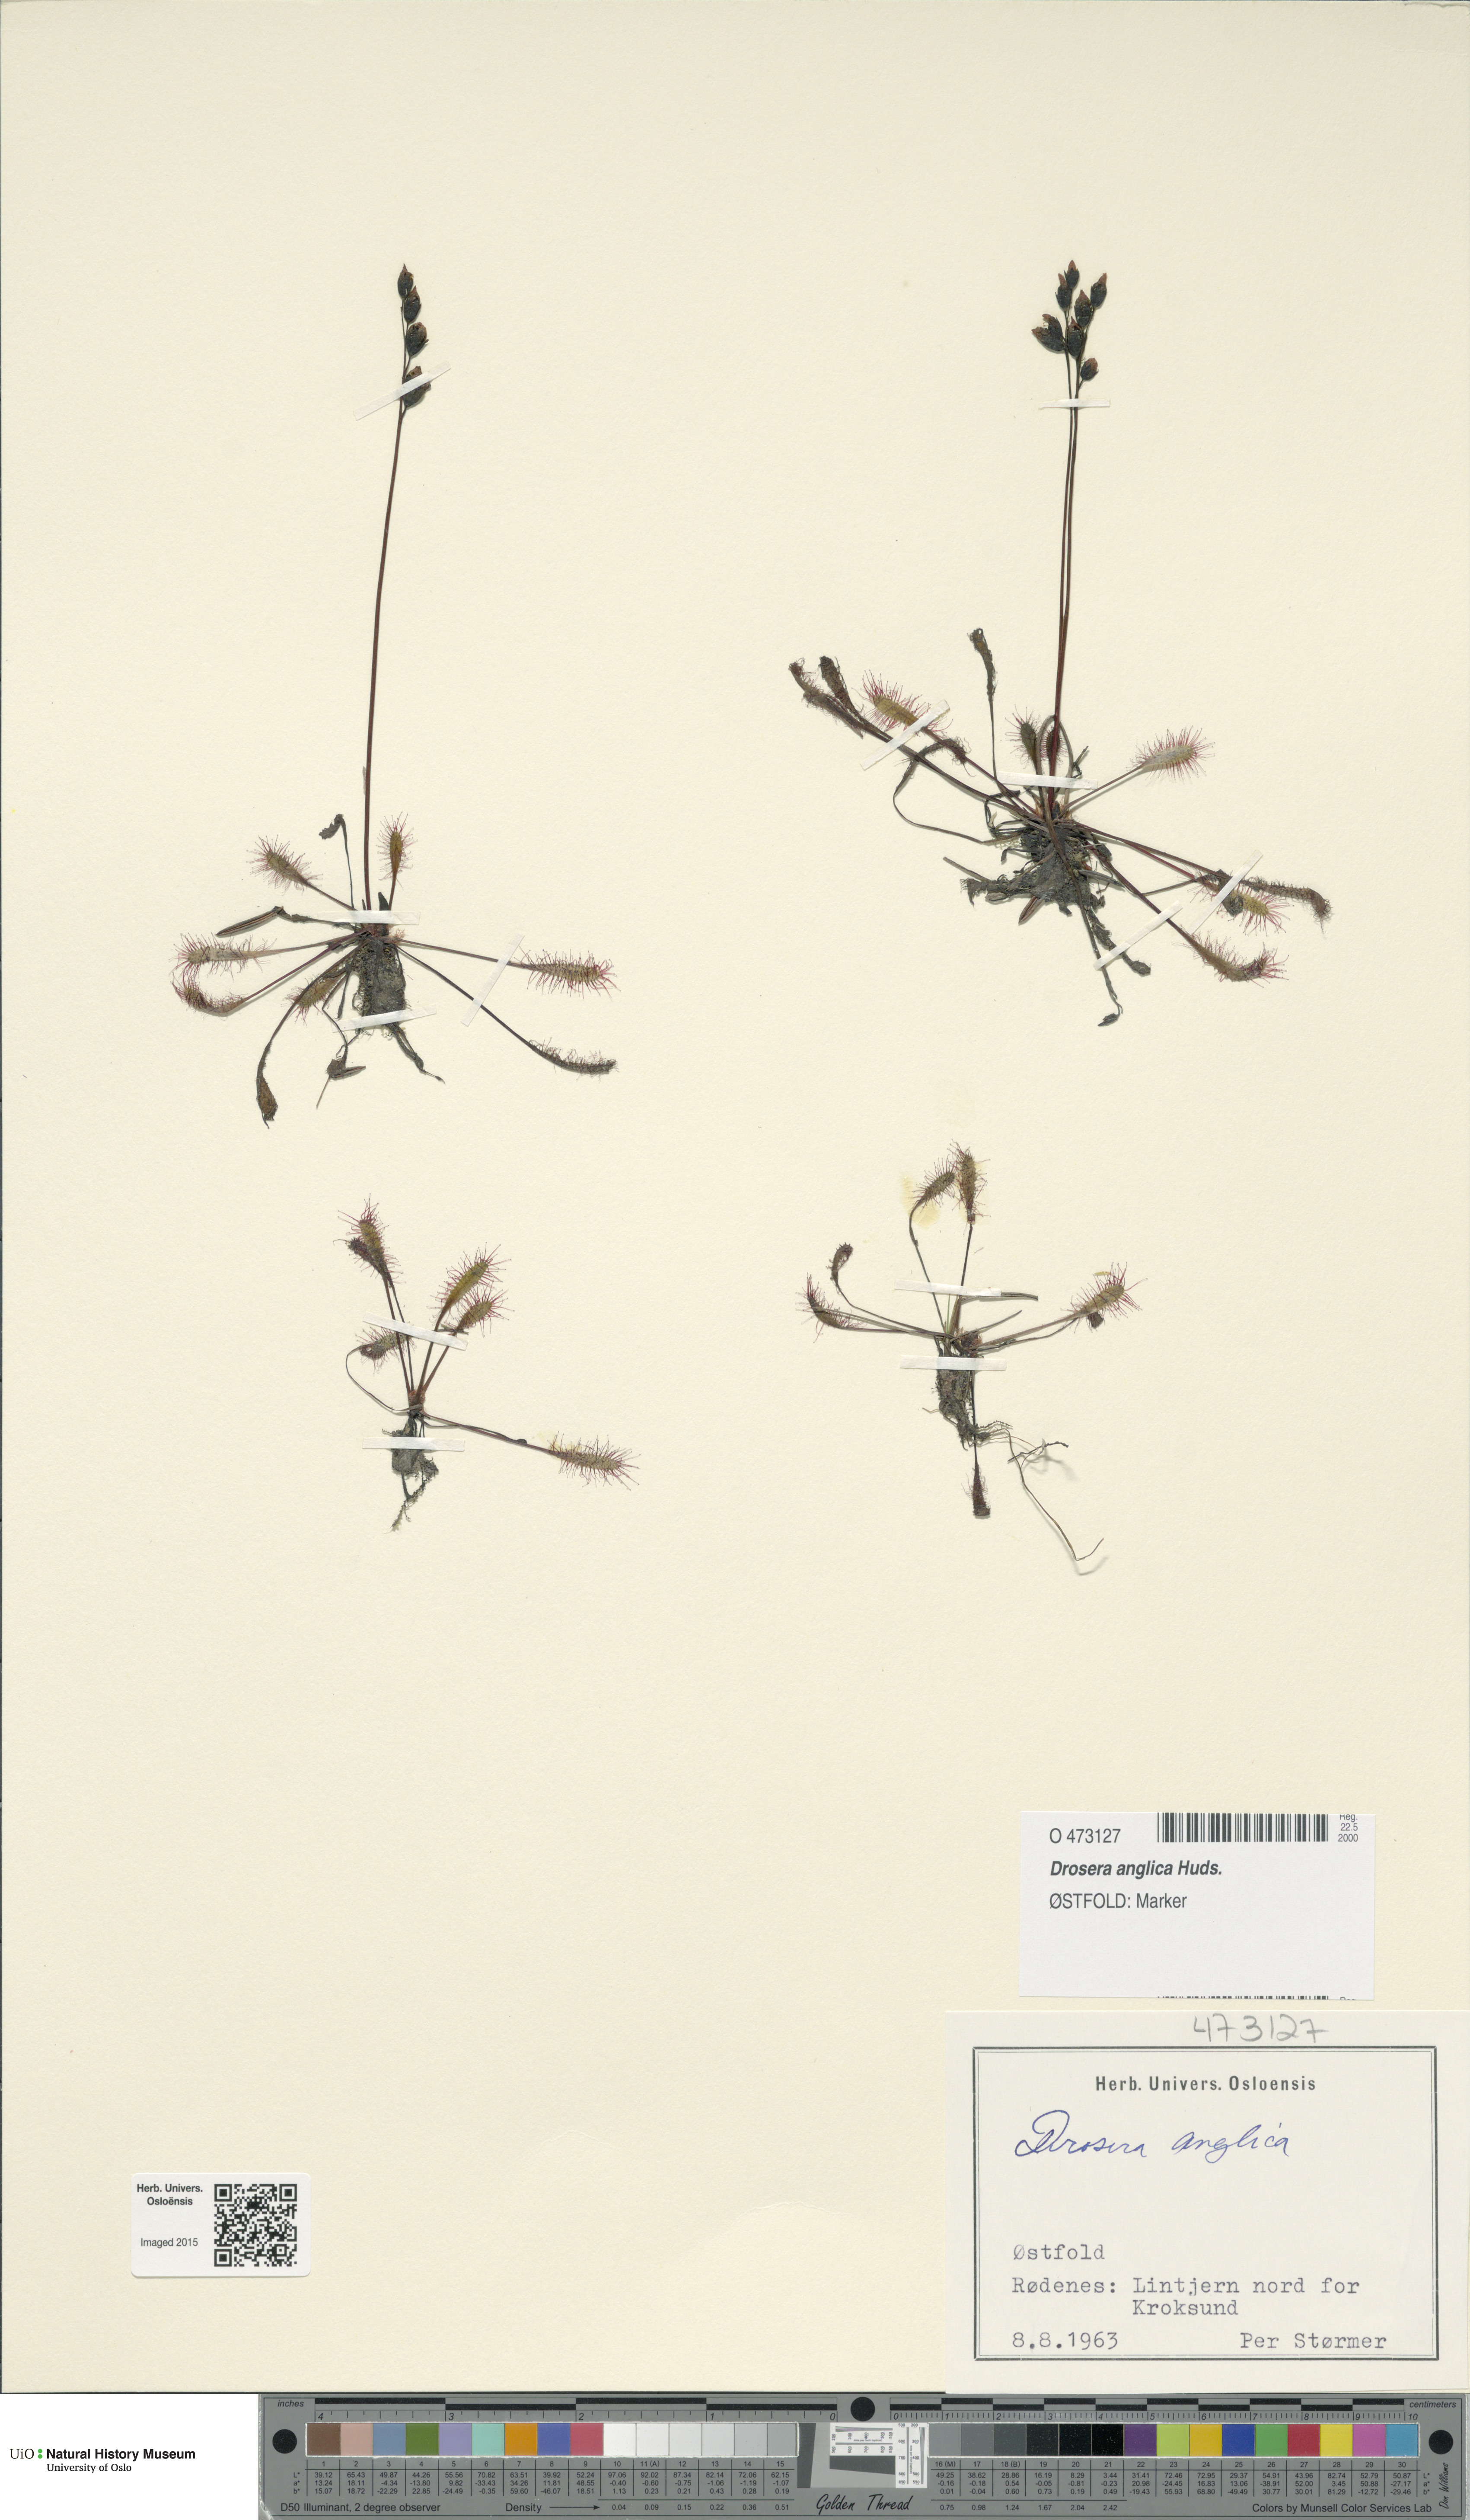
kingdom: Plantae
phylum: Tracheophyta
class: Magnoliopsida
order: Caryophyllales
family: Droseraceae
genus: Drosera
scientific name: Drosera anglica
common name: Great sundew
